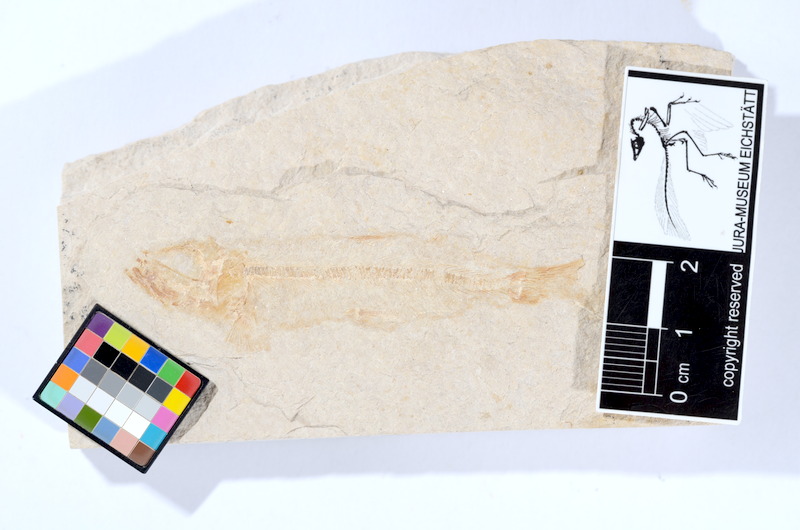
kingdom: Animalia
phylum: Chordata
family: Ascalaboidae
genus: Tharsis
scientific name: Tharsis dubius
